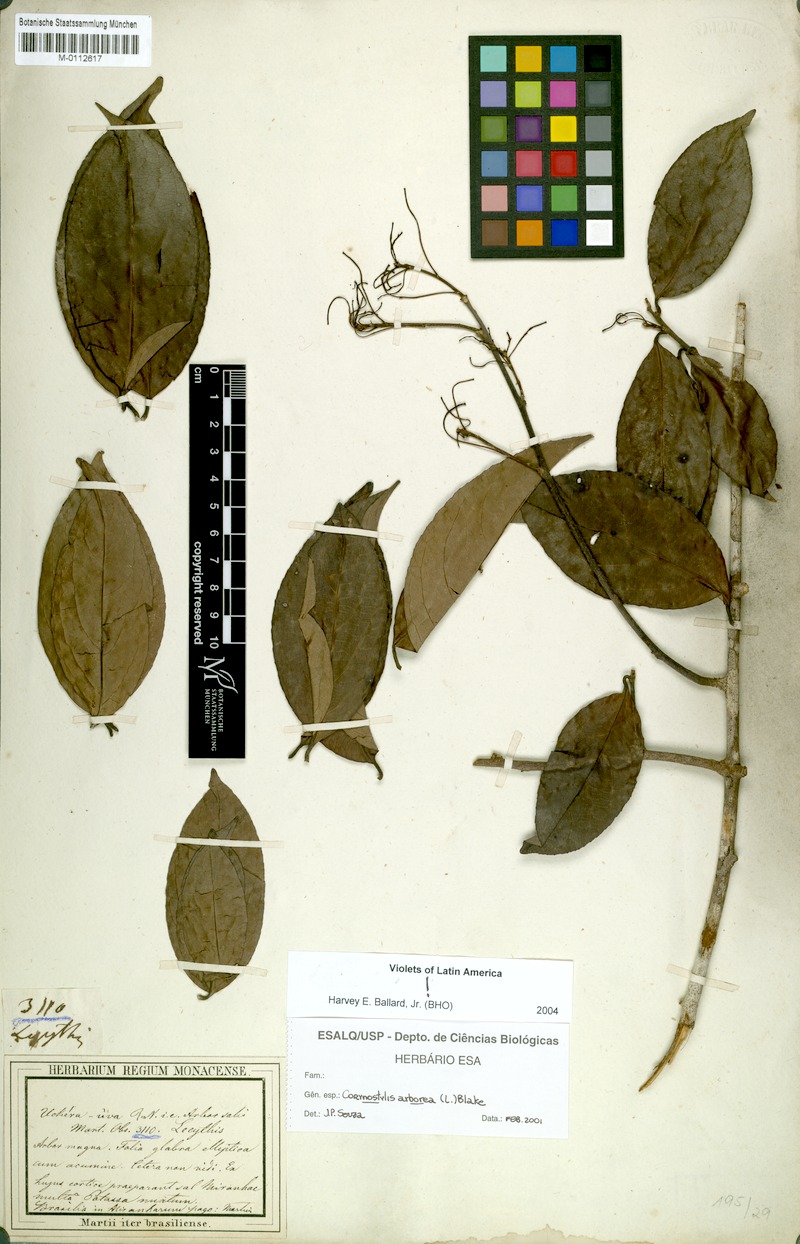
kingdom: Plantae
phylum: Tracheophyta
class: Magnoliopsida
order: Malpighiales
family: Violaceae
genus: Calyptrion
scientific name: Calyptrion arboreum
